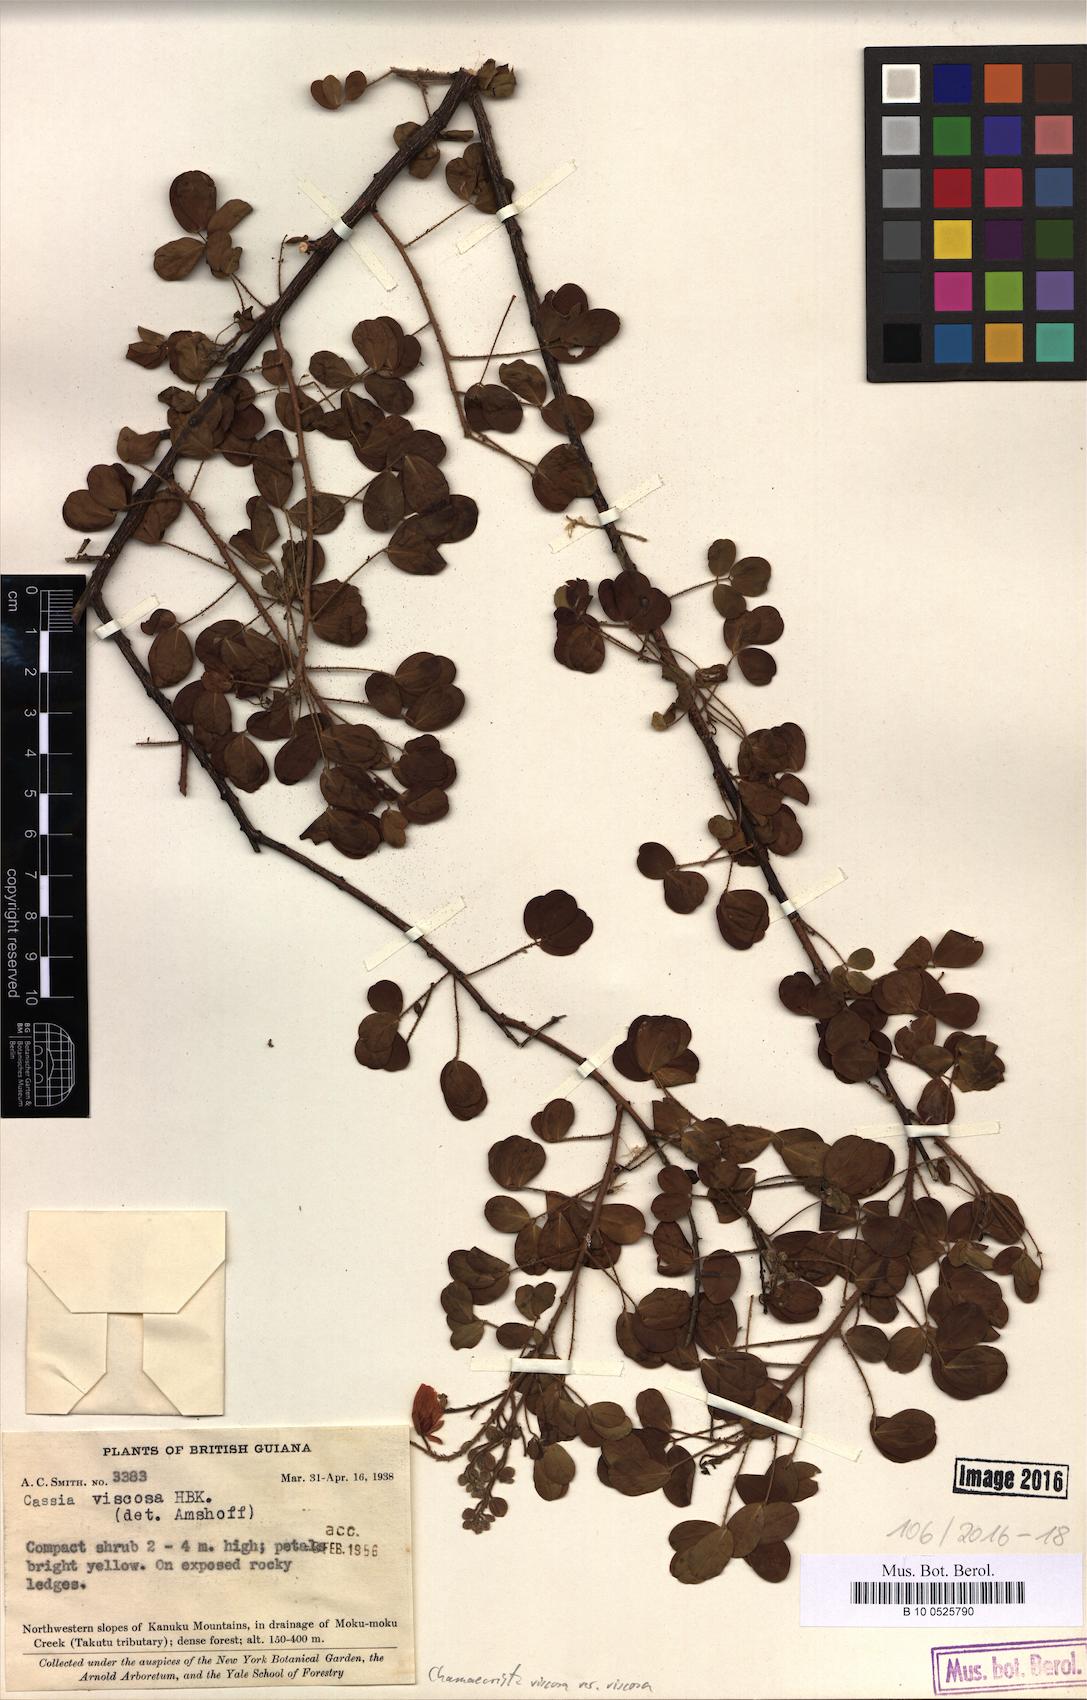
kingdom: Plantae
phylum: Tracheophyta
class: Magnoliopsida
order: Fabales
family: Fabaceae
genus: Chamaecrista
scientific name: Chamaecrista viscosa
